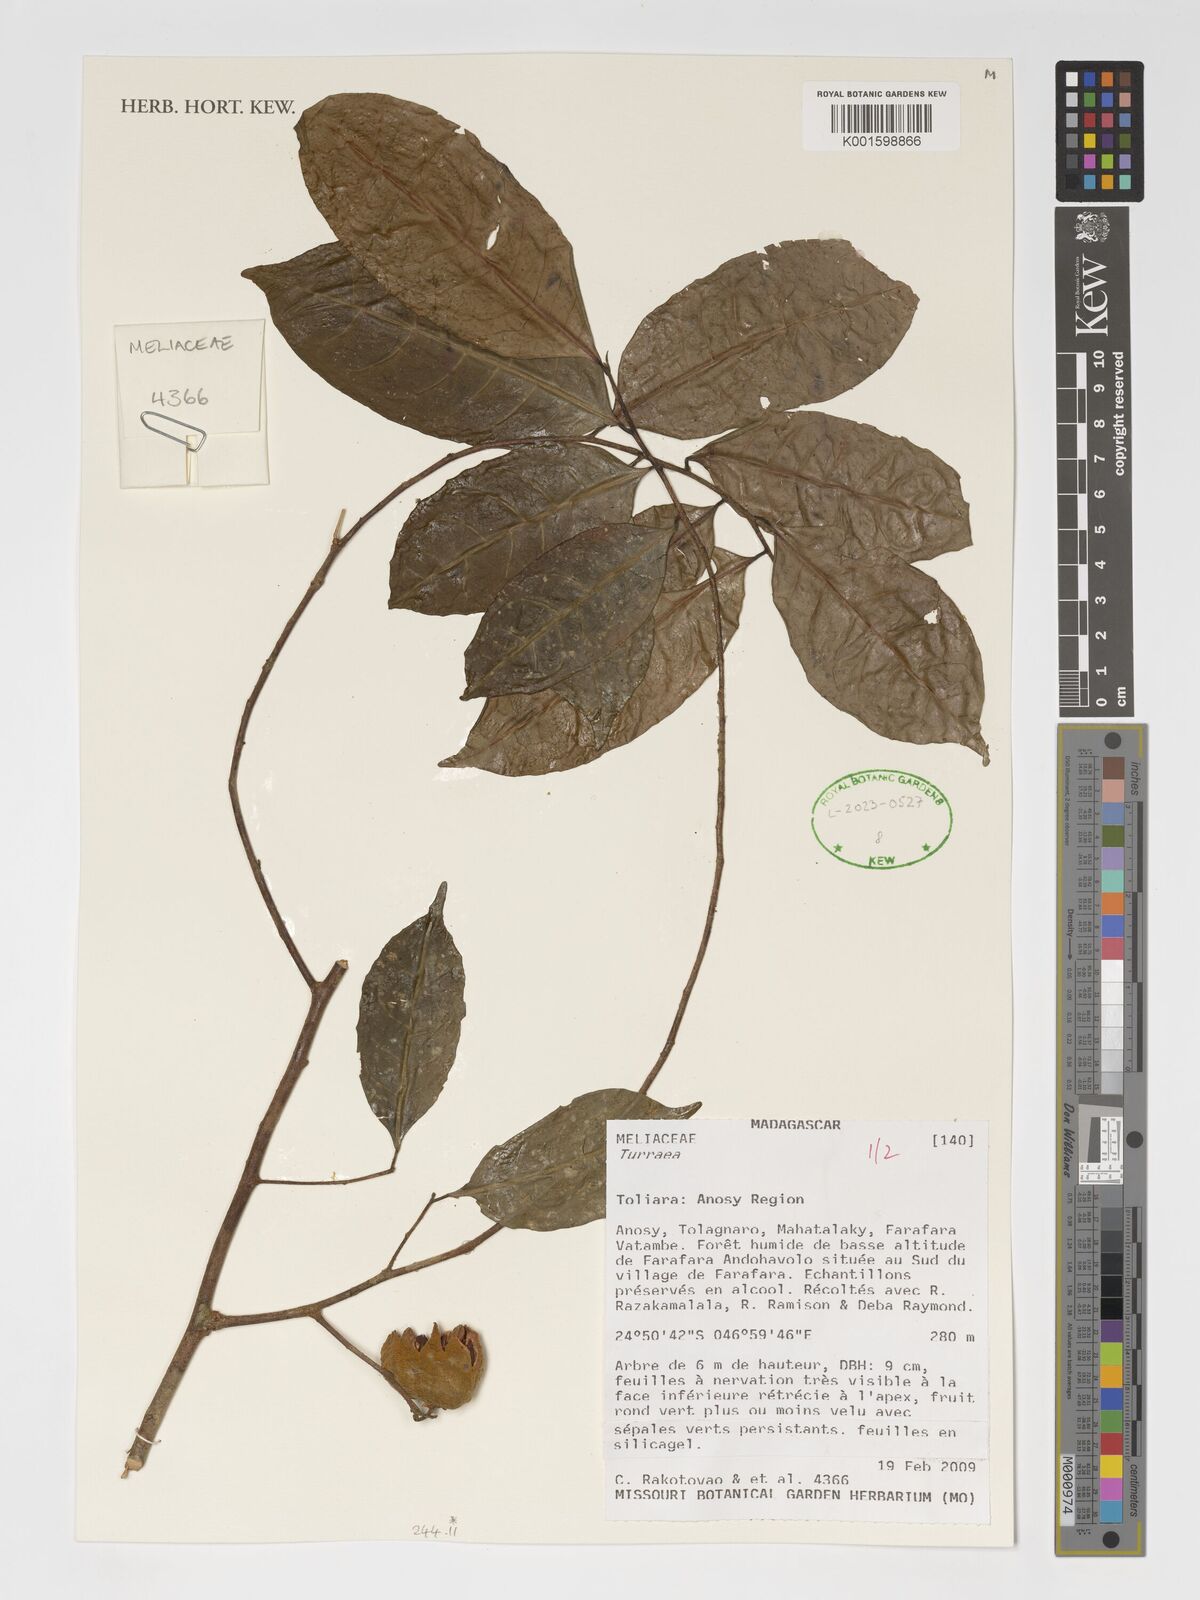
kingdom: Plantae
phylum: Tracheophyta
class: Magnoliopsida
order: Sapindales
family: Meliaceae
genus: Turraea
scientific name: Turraea
